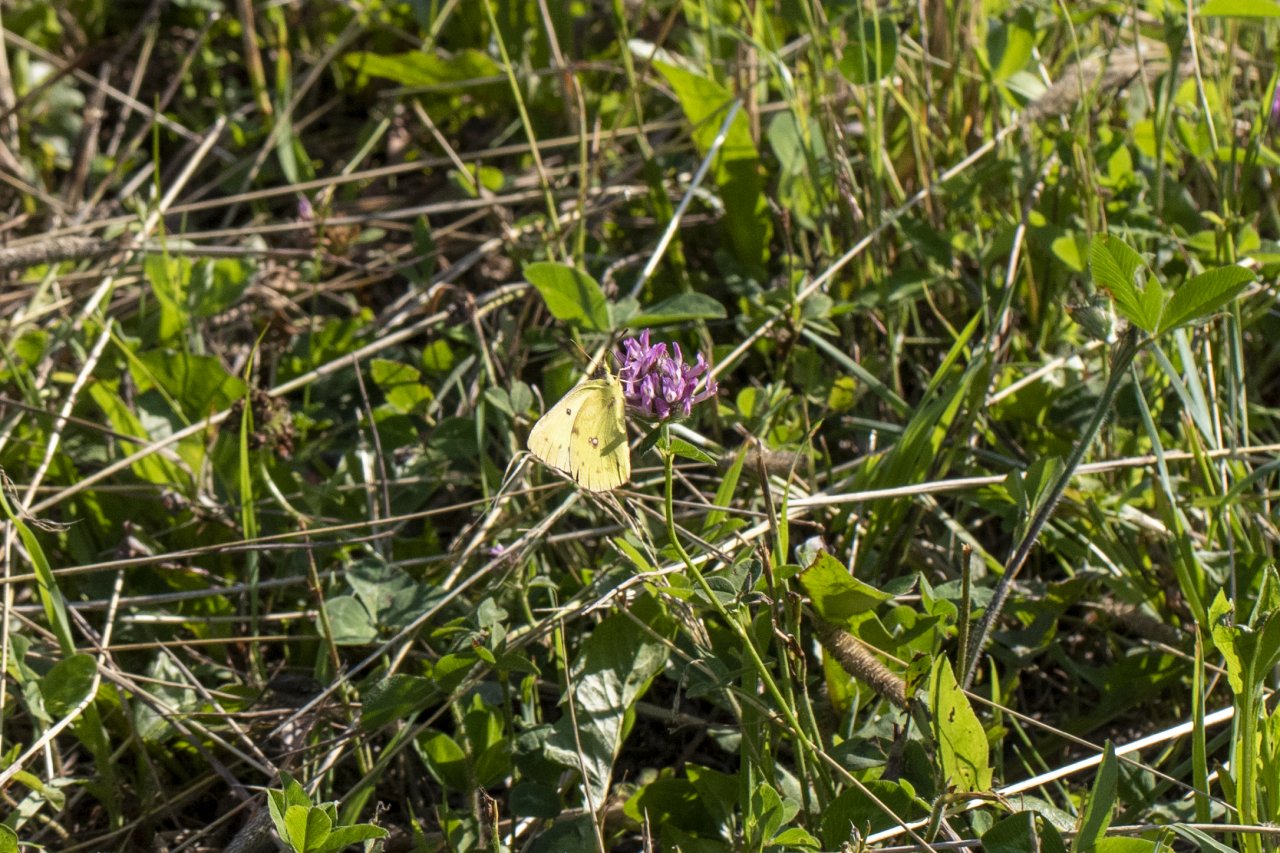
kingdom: Animalia
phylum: Arthropoda
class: Insecta
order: Lepidoptera
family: Pieridae
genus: Colias
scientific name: Colias philodice
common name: Clouded Sulphur
